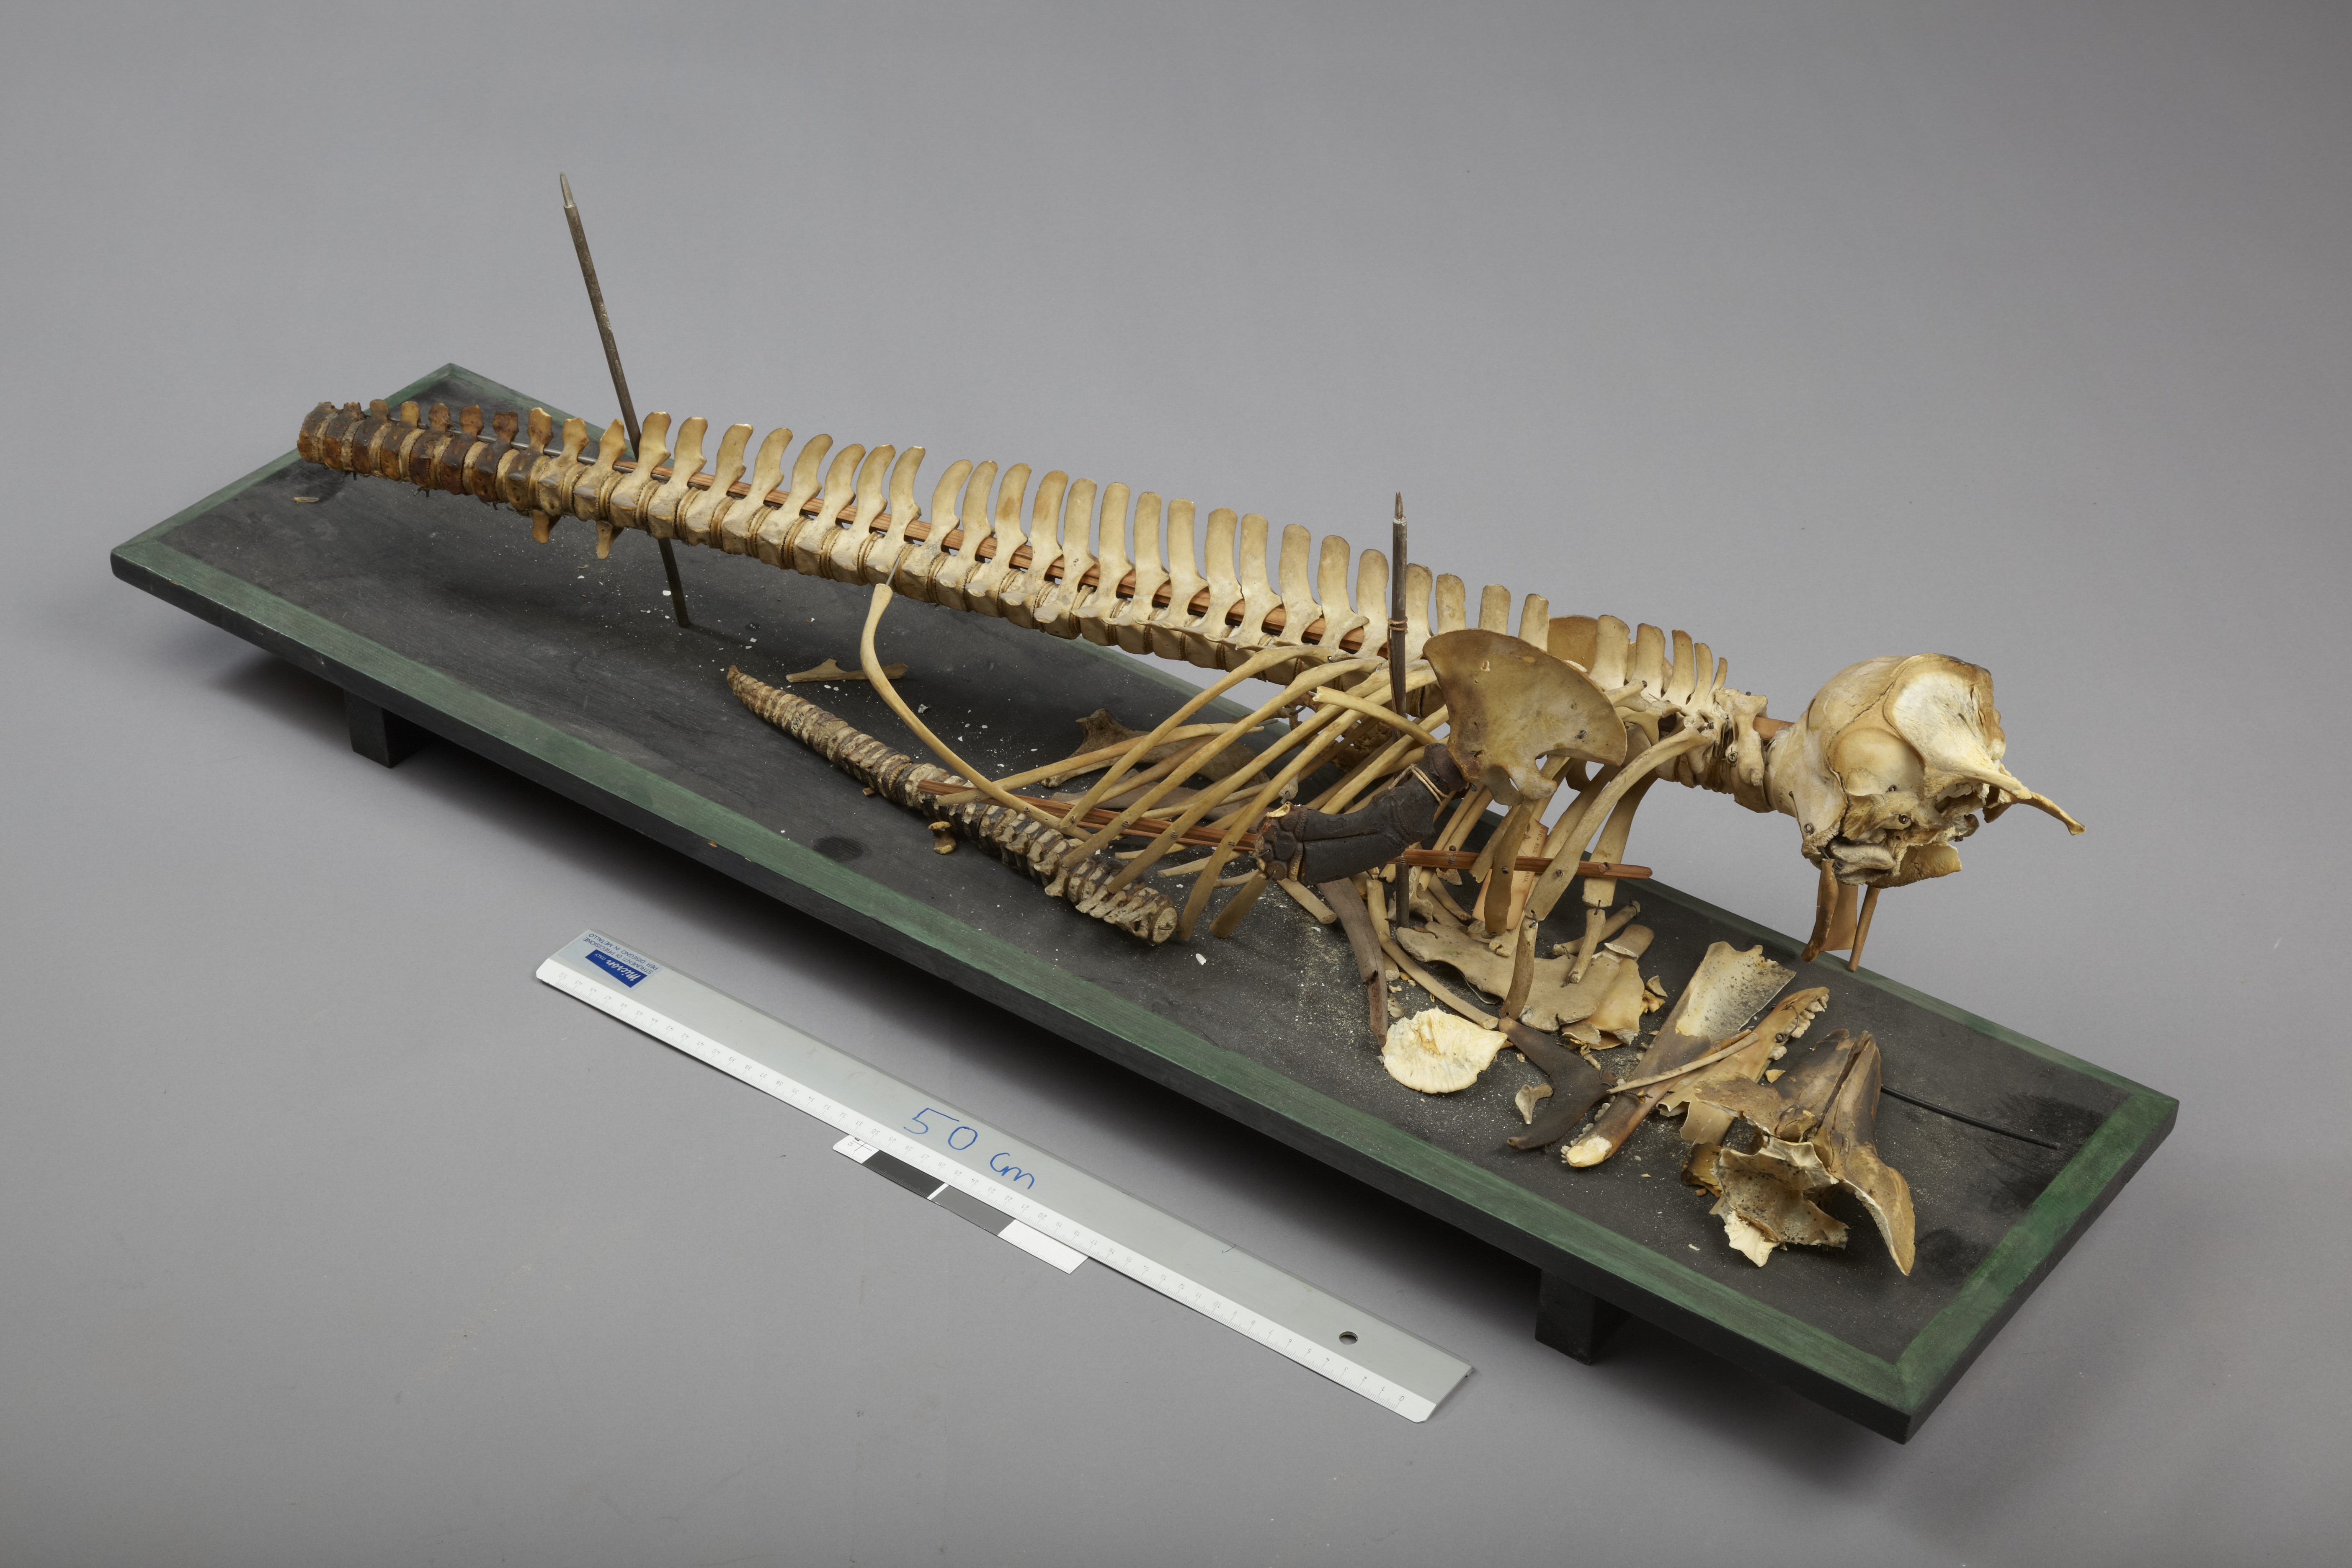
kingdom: Animalia
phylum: Chordata
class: Mammalia
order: Cetacea
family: Phocoenidae
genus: Phocoena
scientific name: Phocoena phocoena
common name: Harbor porpoise
